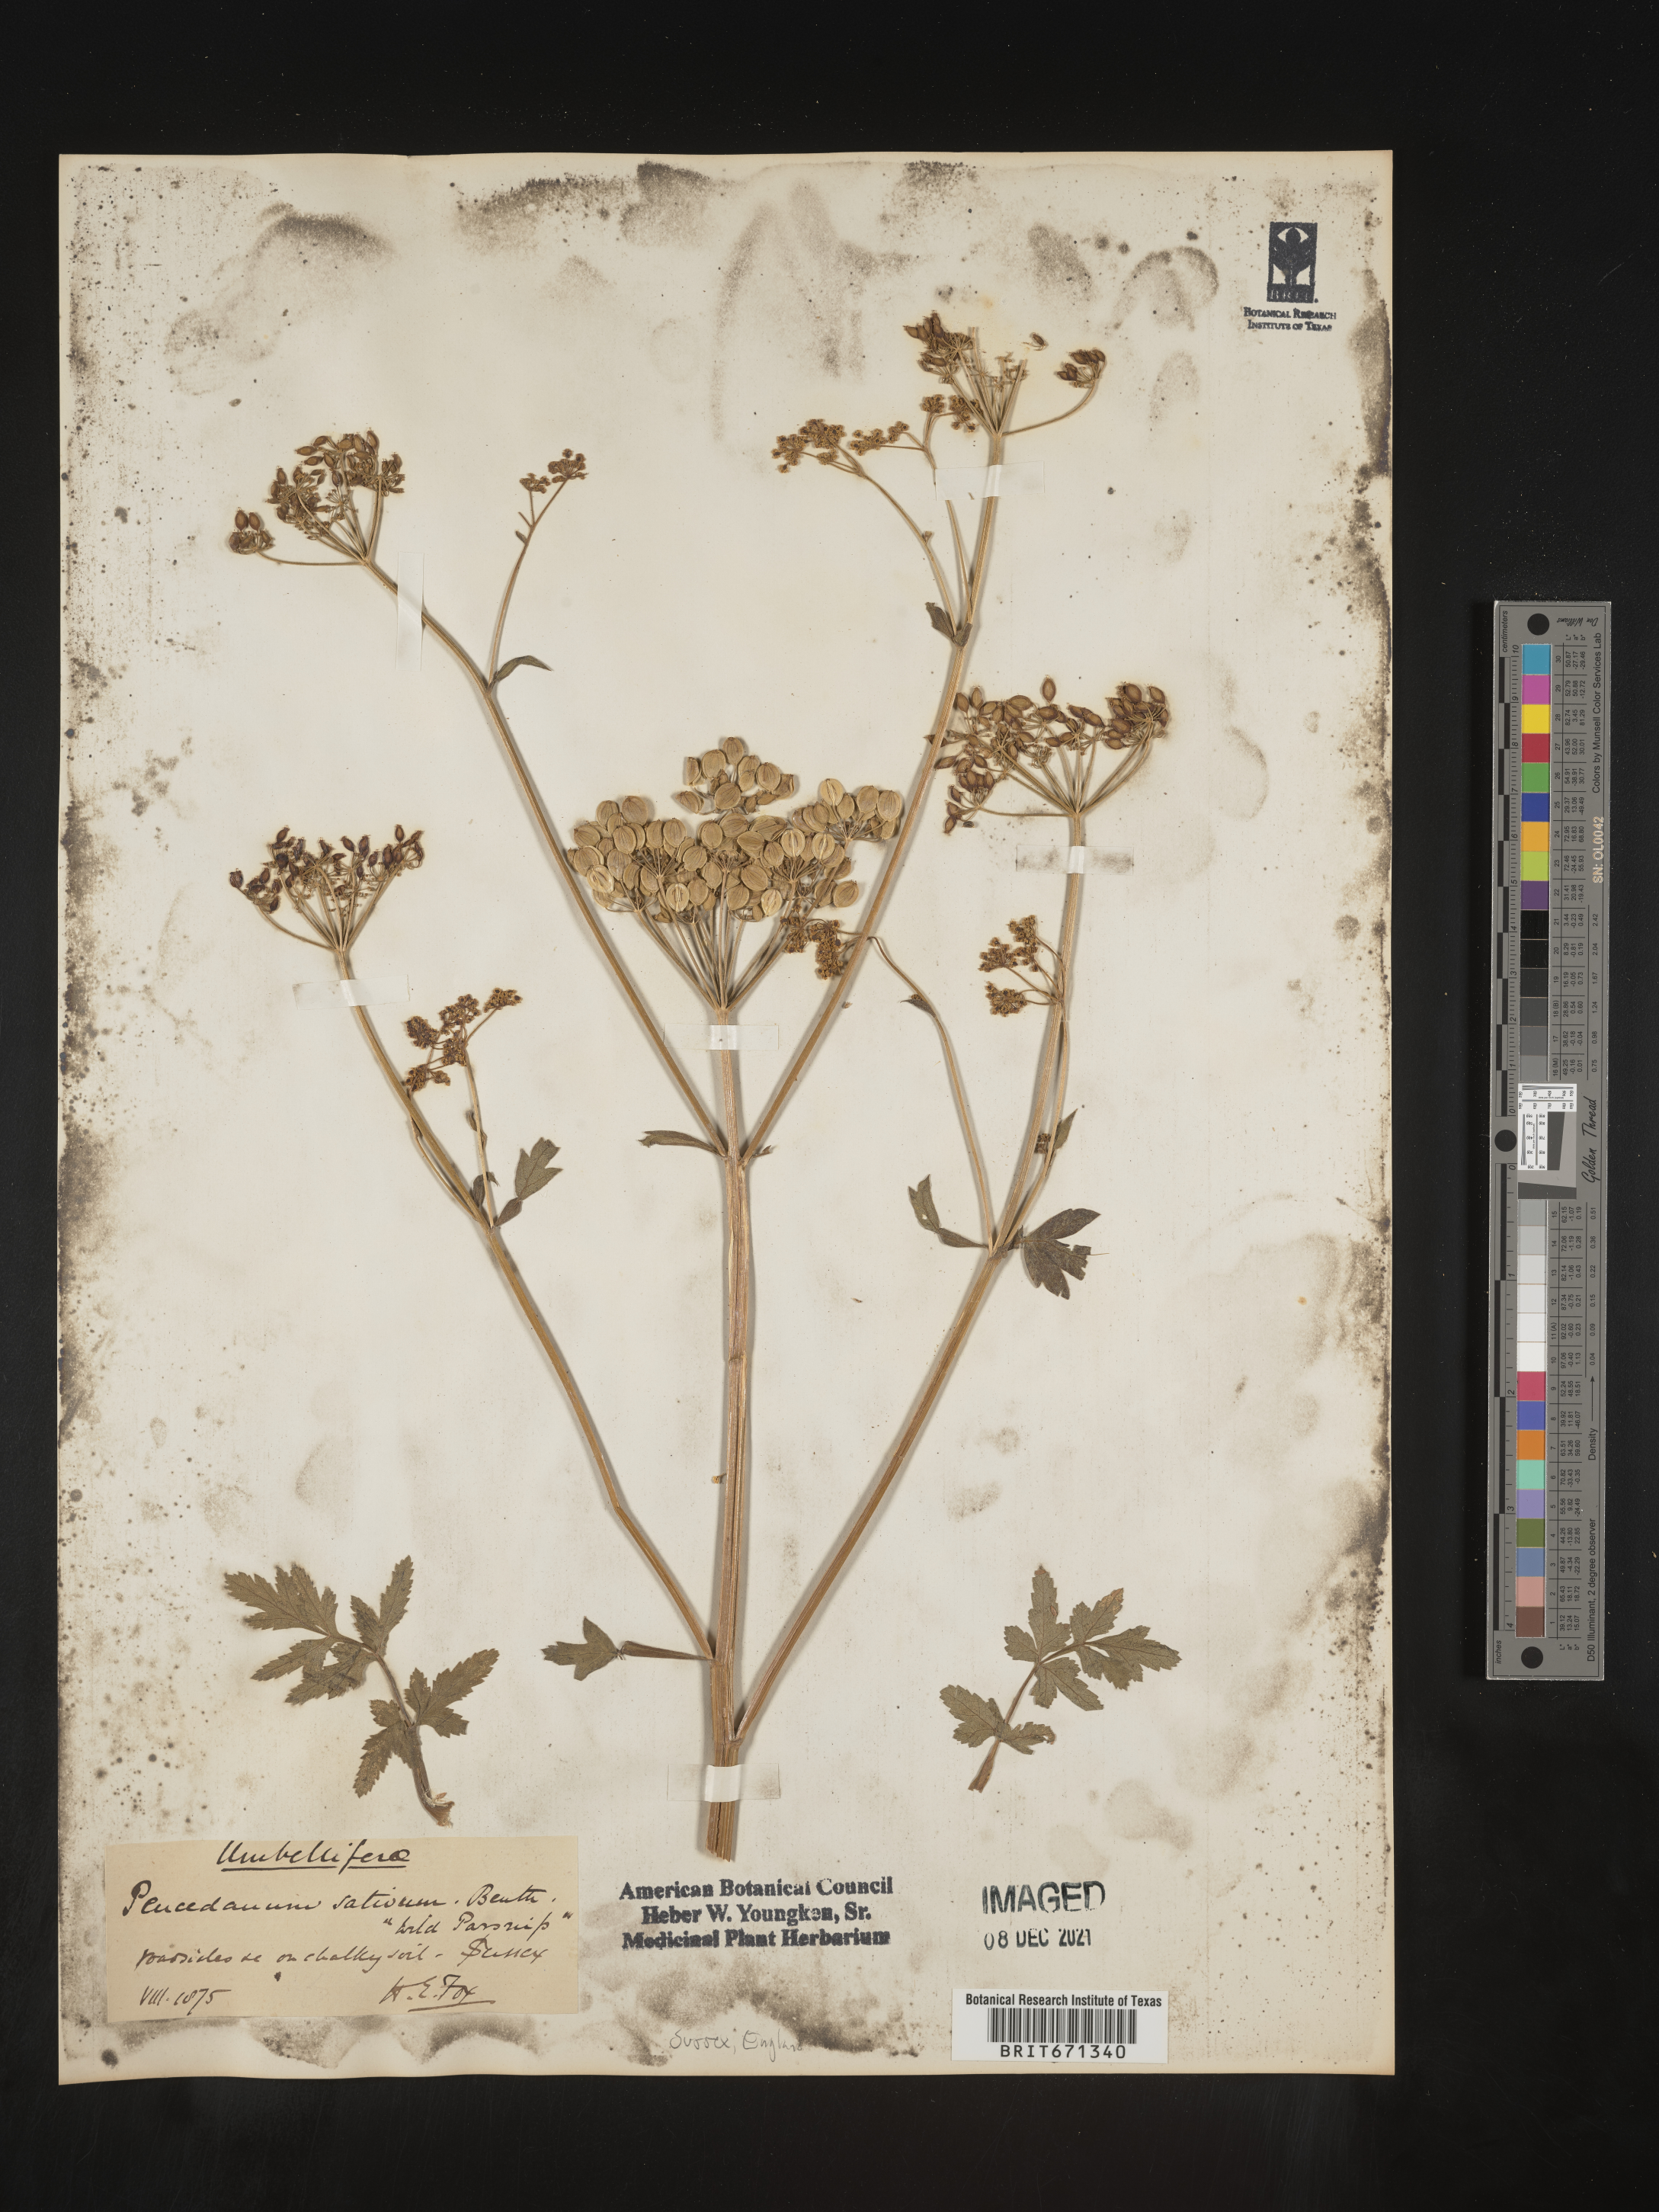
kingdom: Plantae
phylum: Tracheophyta
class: Magnoliopsida
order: Apiales
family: Apiaceae
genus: Petroselinum
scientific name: Petroselinum
